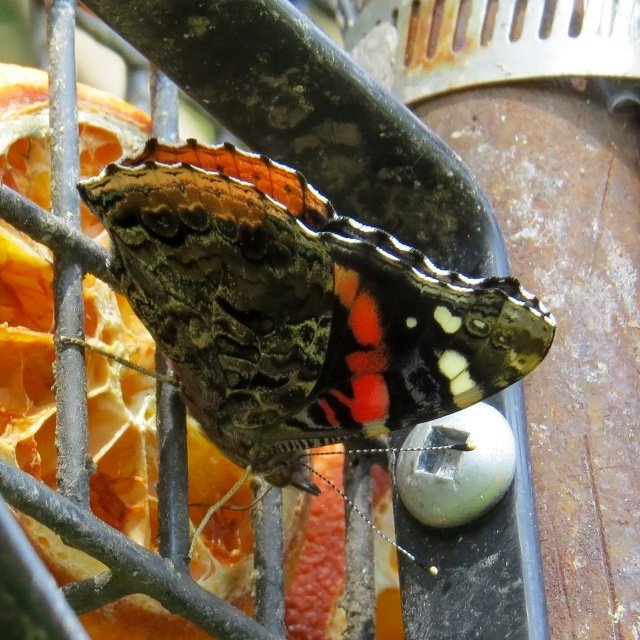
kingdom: Animalia
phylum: Arthropoda
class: Insecta
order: Lepidoptera
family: Nymphalidae
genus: Vanessa
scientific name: Vanessa atalanta
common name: Red Admiral
